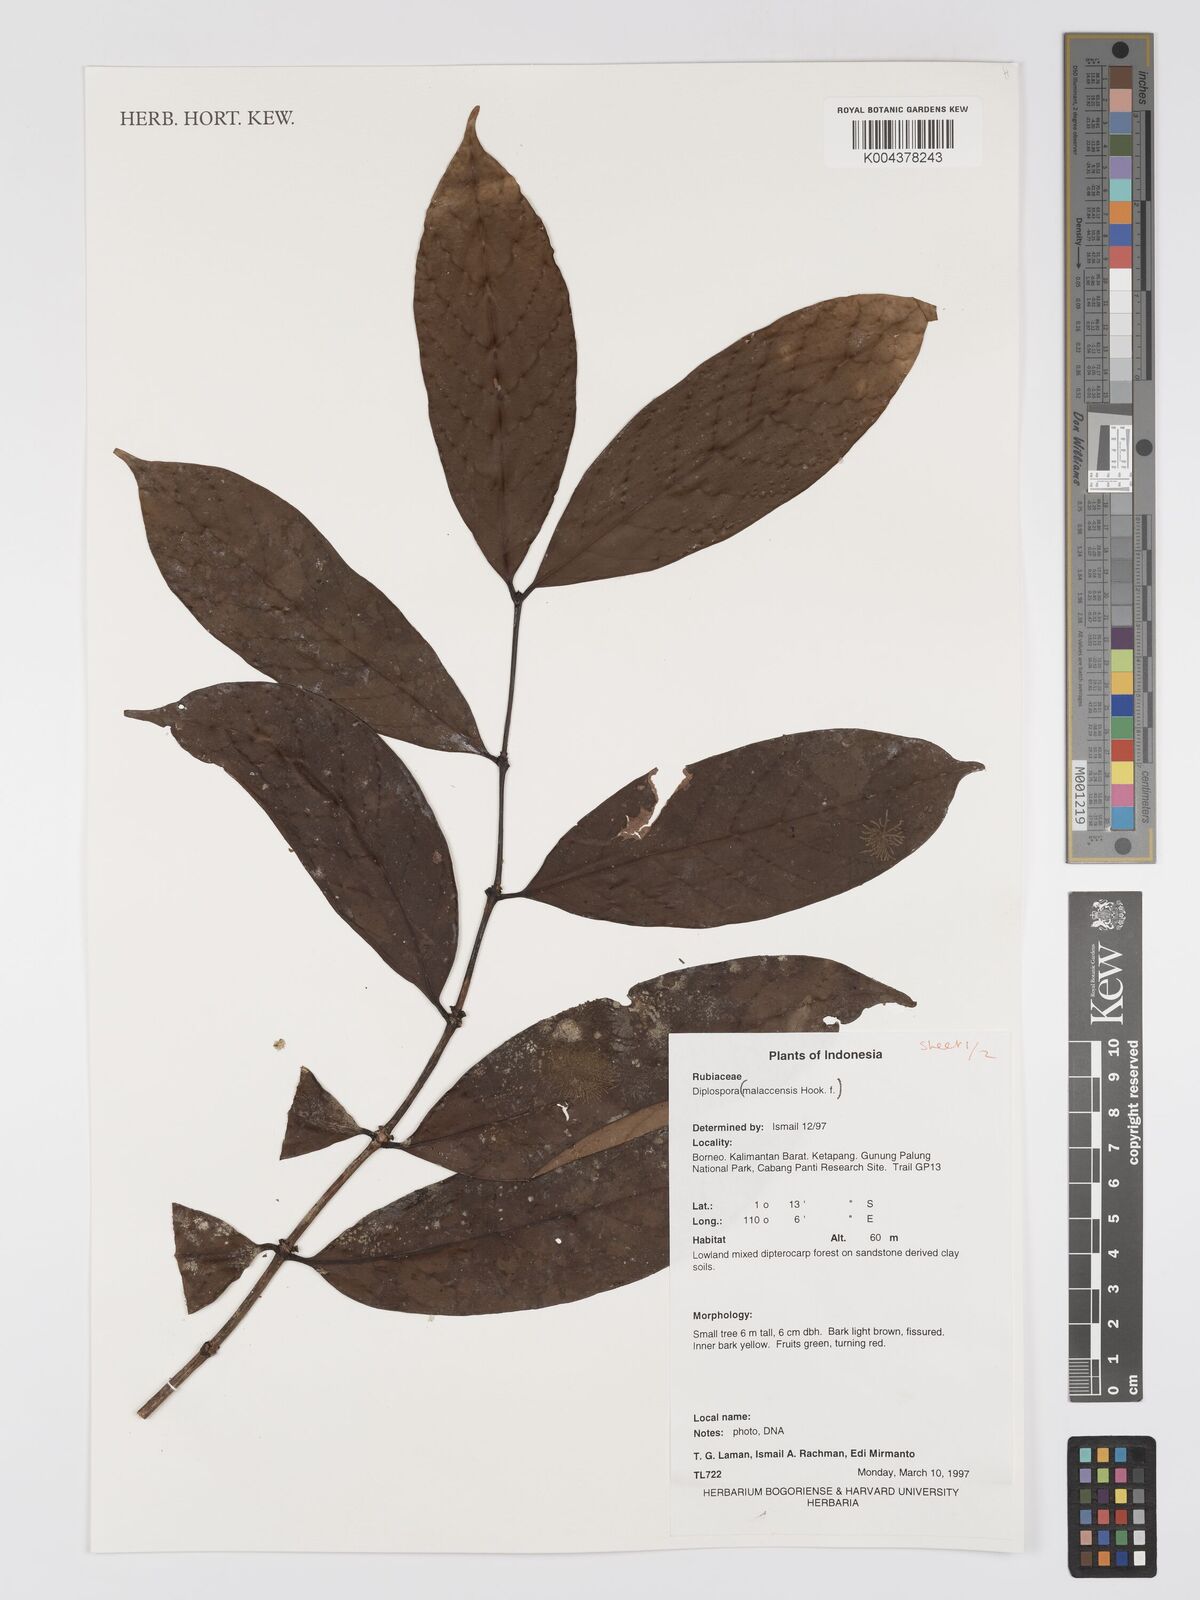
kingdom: Plantae
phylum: Tracheophyta
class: Magnoliopsida
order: Gentianales
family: Rubiaceae
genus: Discospermum
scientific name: Discospermum malaccense
